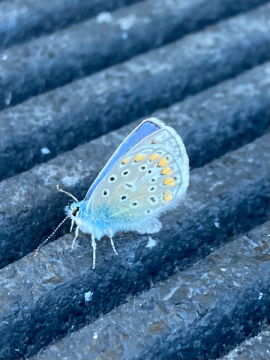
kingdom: Animalia
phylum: Arthropoda
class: Insecta
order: Lepidoptera
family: Lycaenidae
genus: Polyommatus
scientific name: Polyommatus icarus
